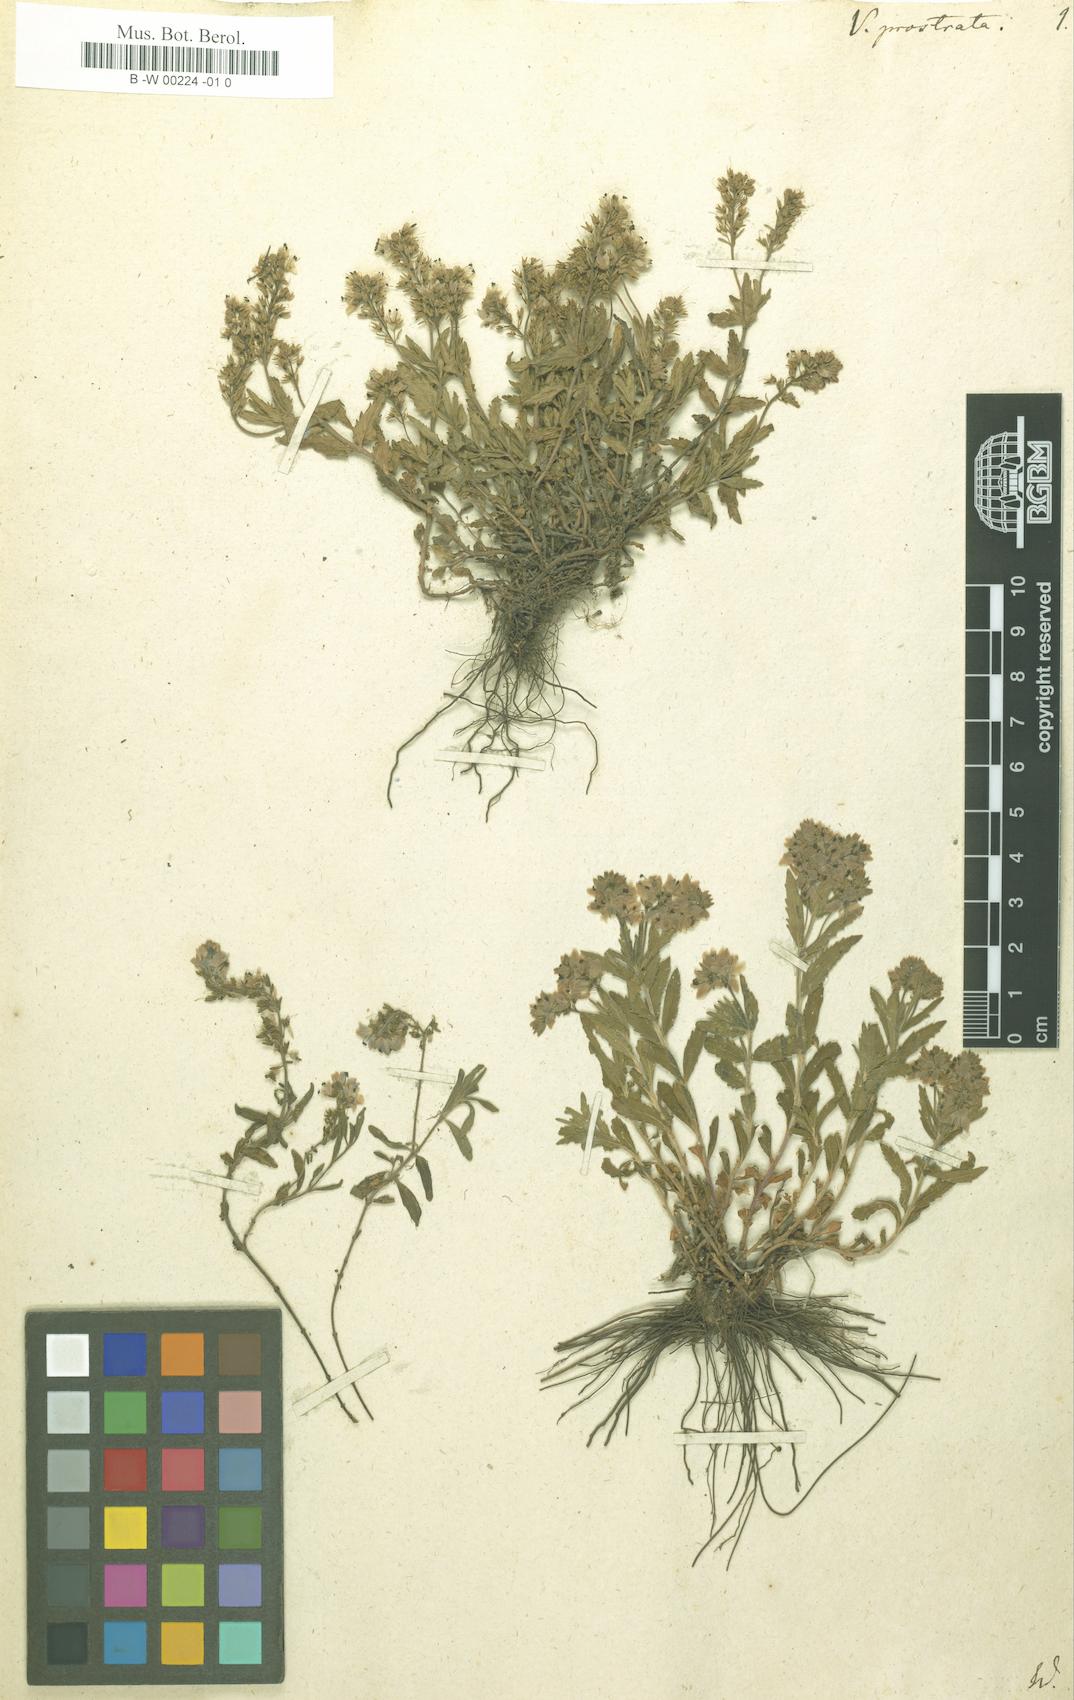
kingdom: Plantae
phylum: Tracheophyta
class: Magnoliopsida
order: Lamiales
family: Plantaginaceae
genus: Veronica
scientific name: Veronica prostrata
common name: Prostrate speedwell
